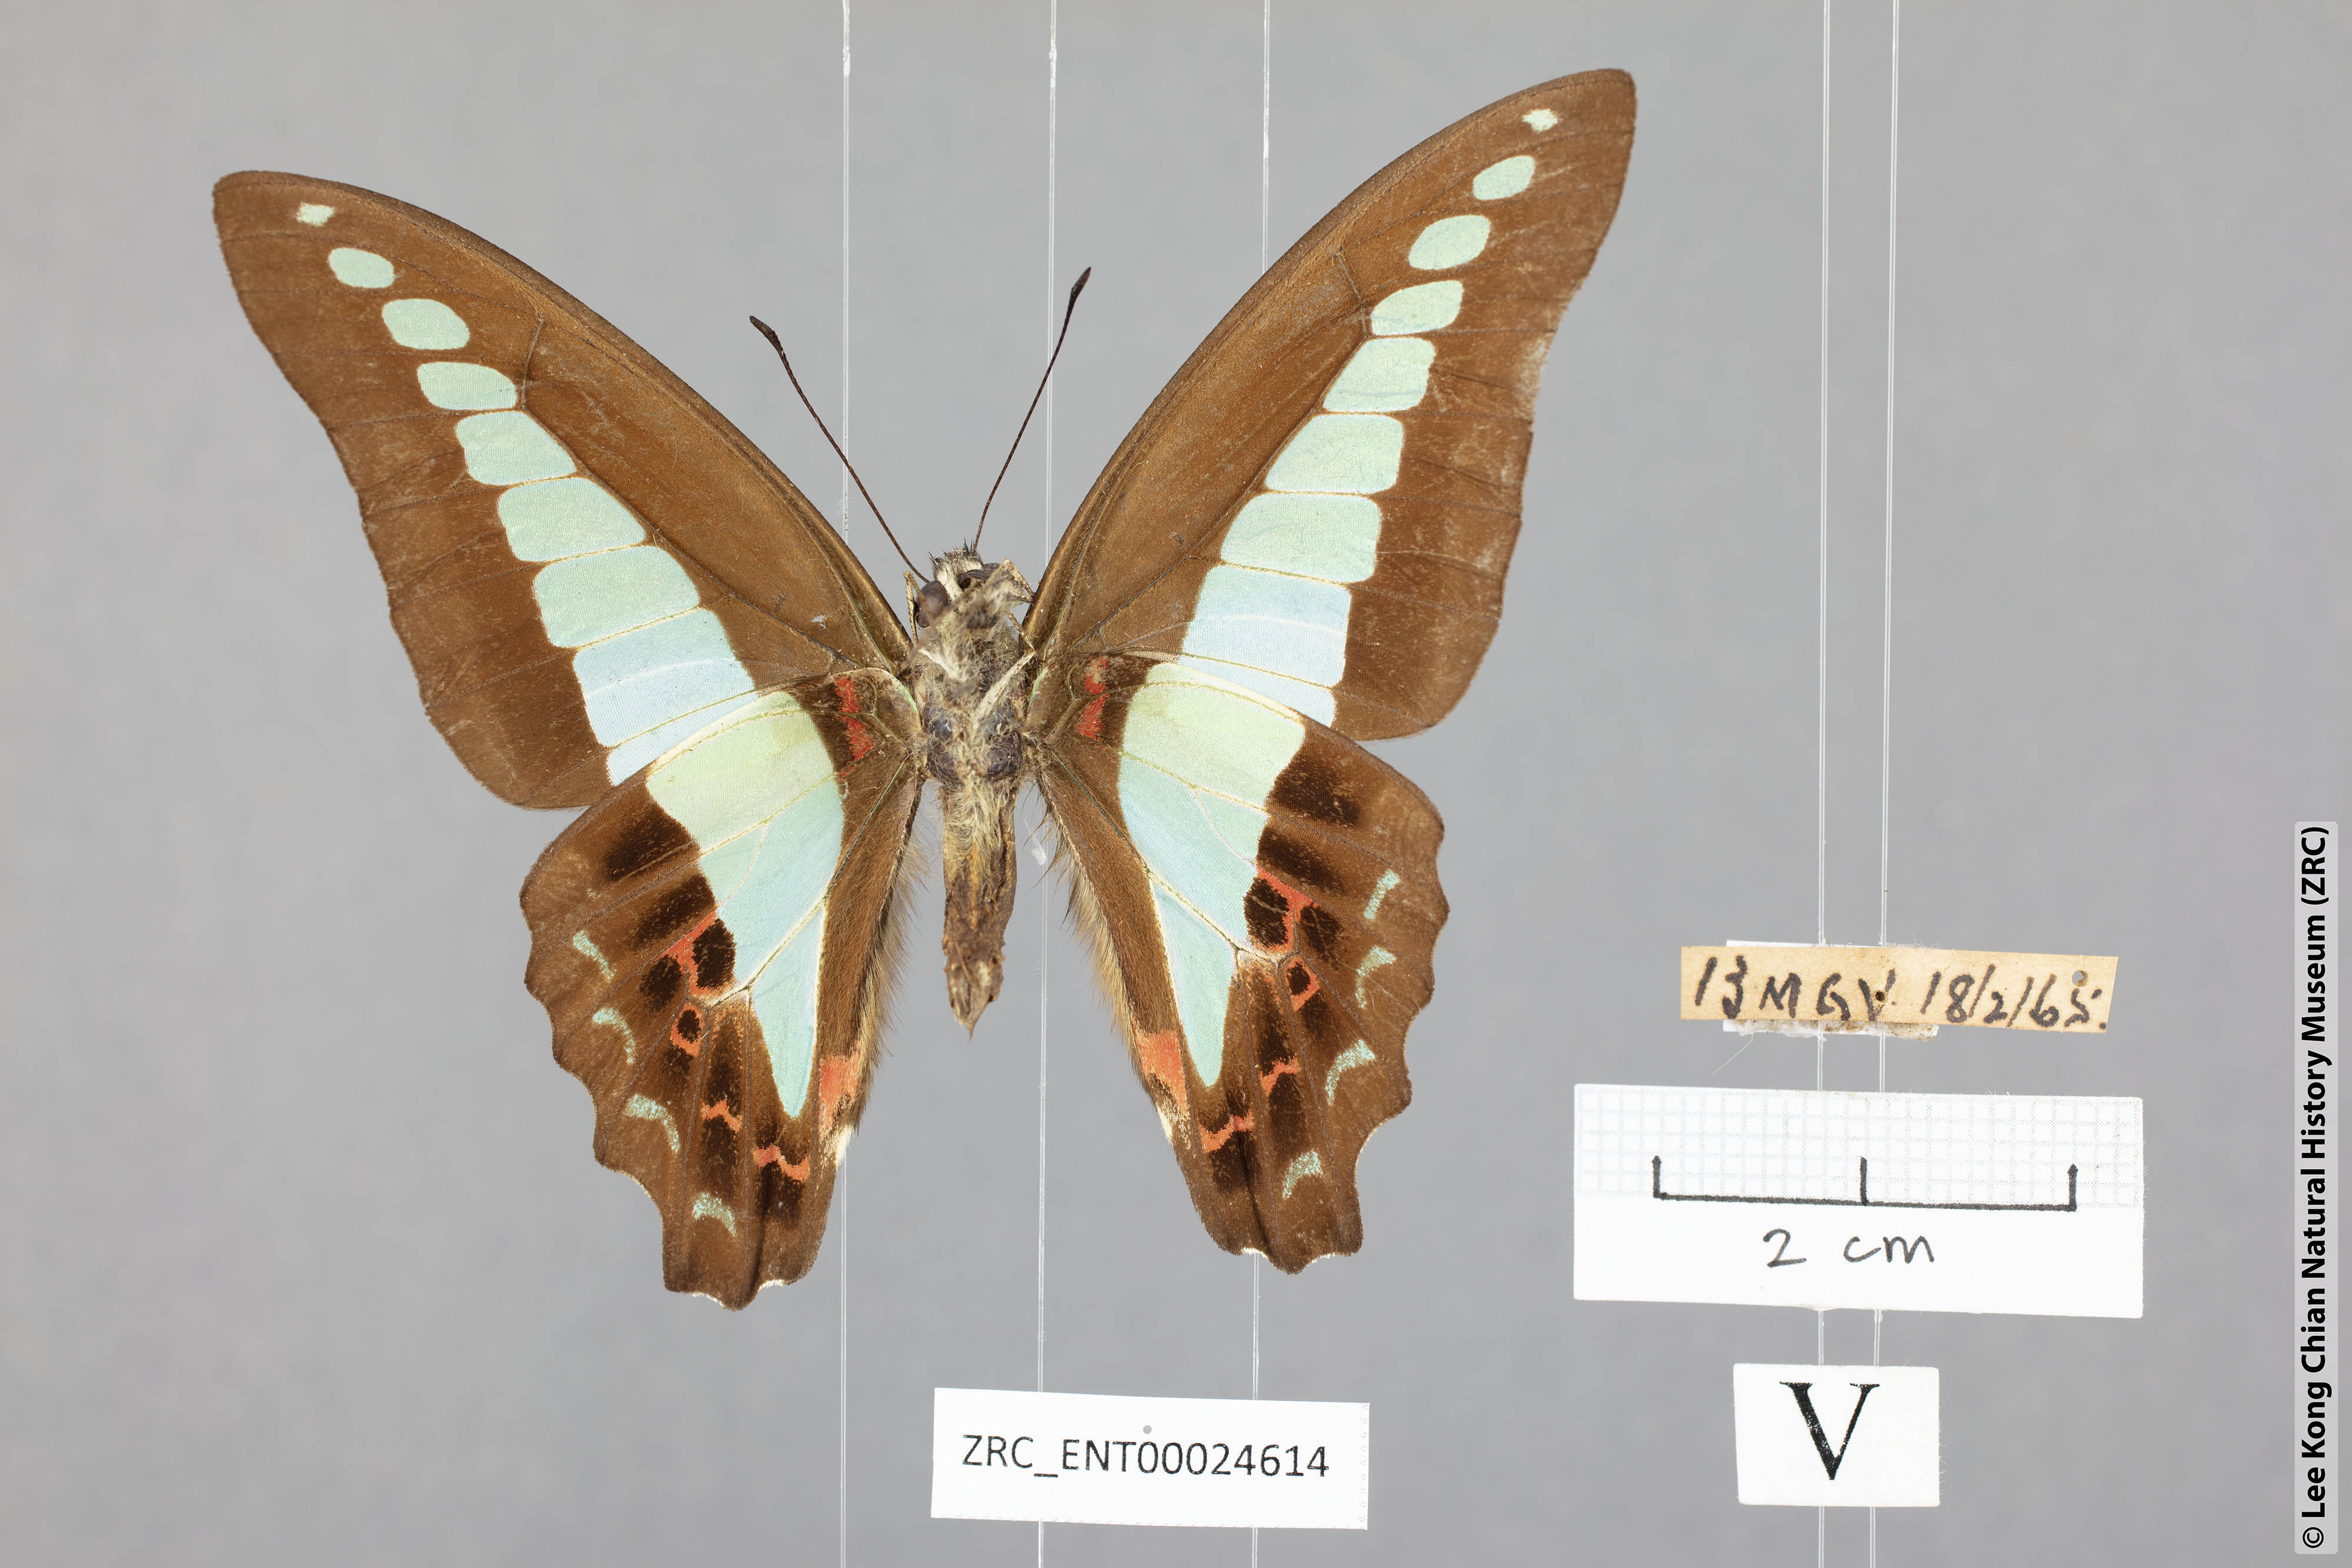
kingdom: Fungi
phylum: Ascomycota
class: Sordariomycetes
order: Microascales
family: Microascaceae
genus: Graphium
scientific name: Graphium sarpedon
